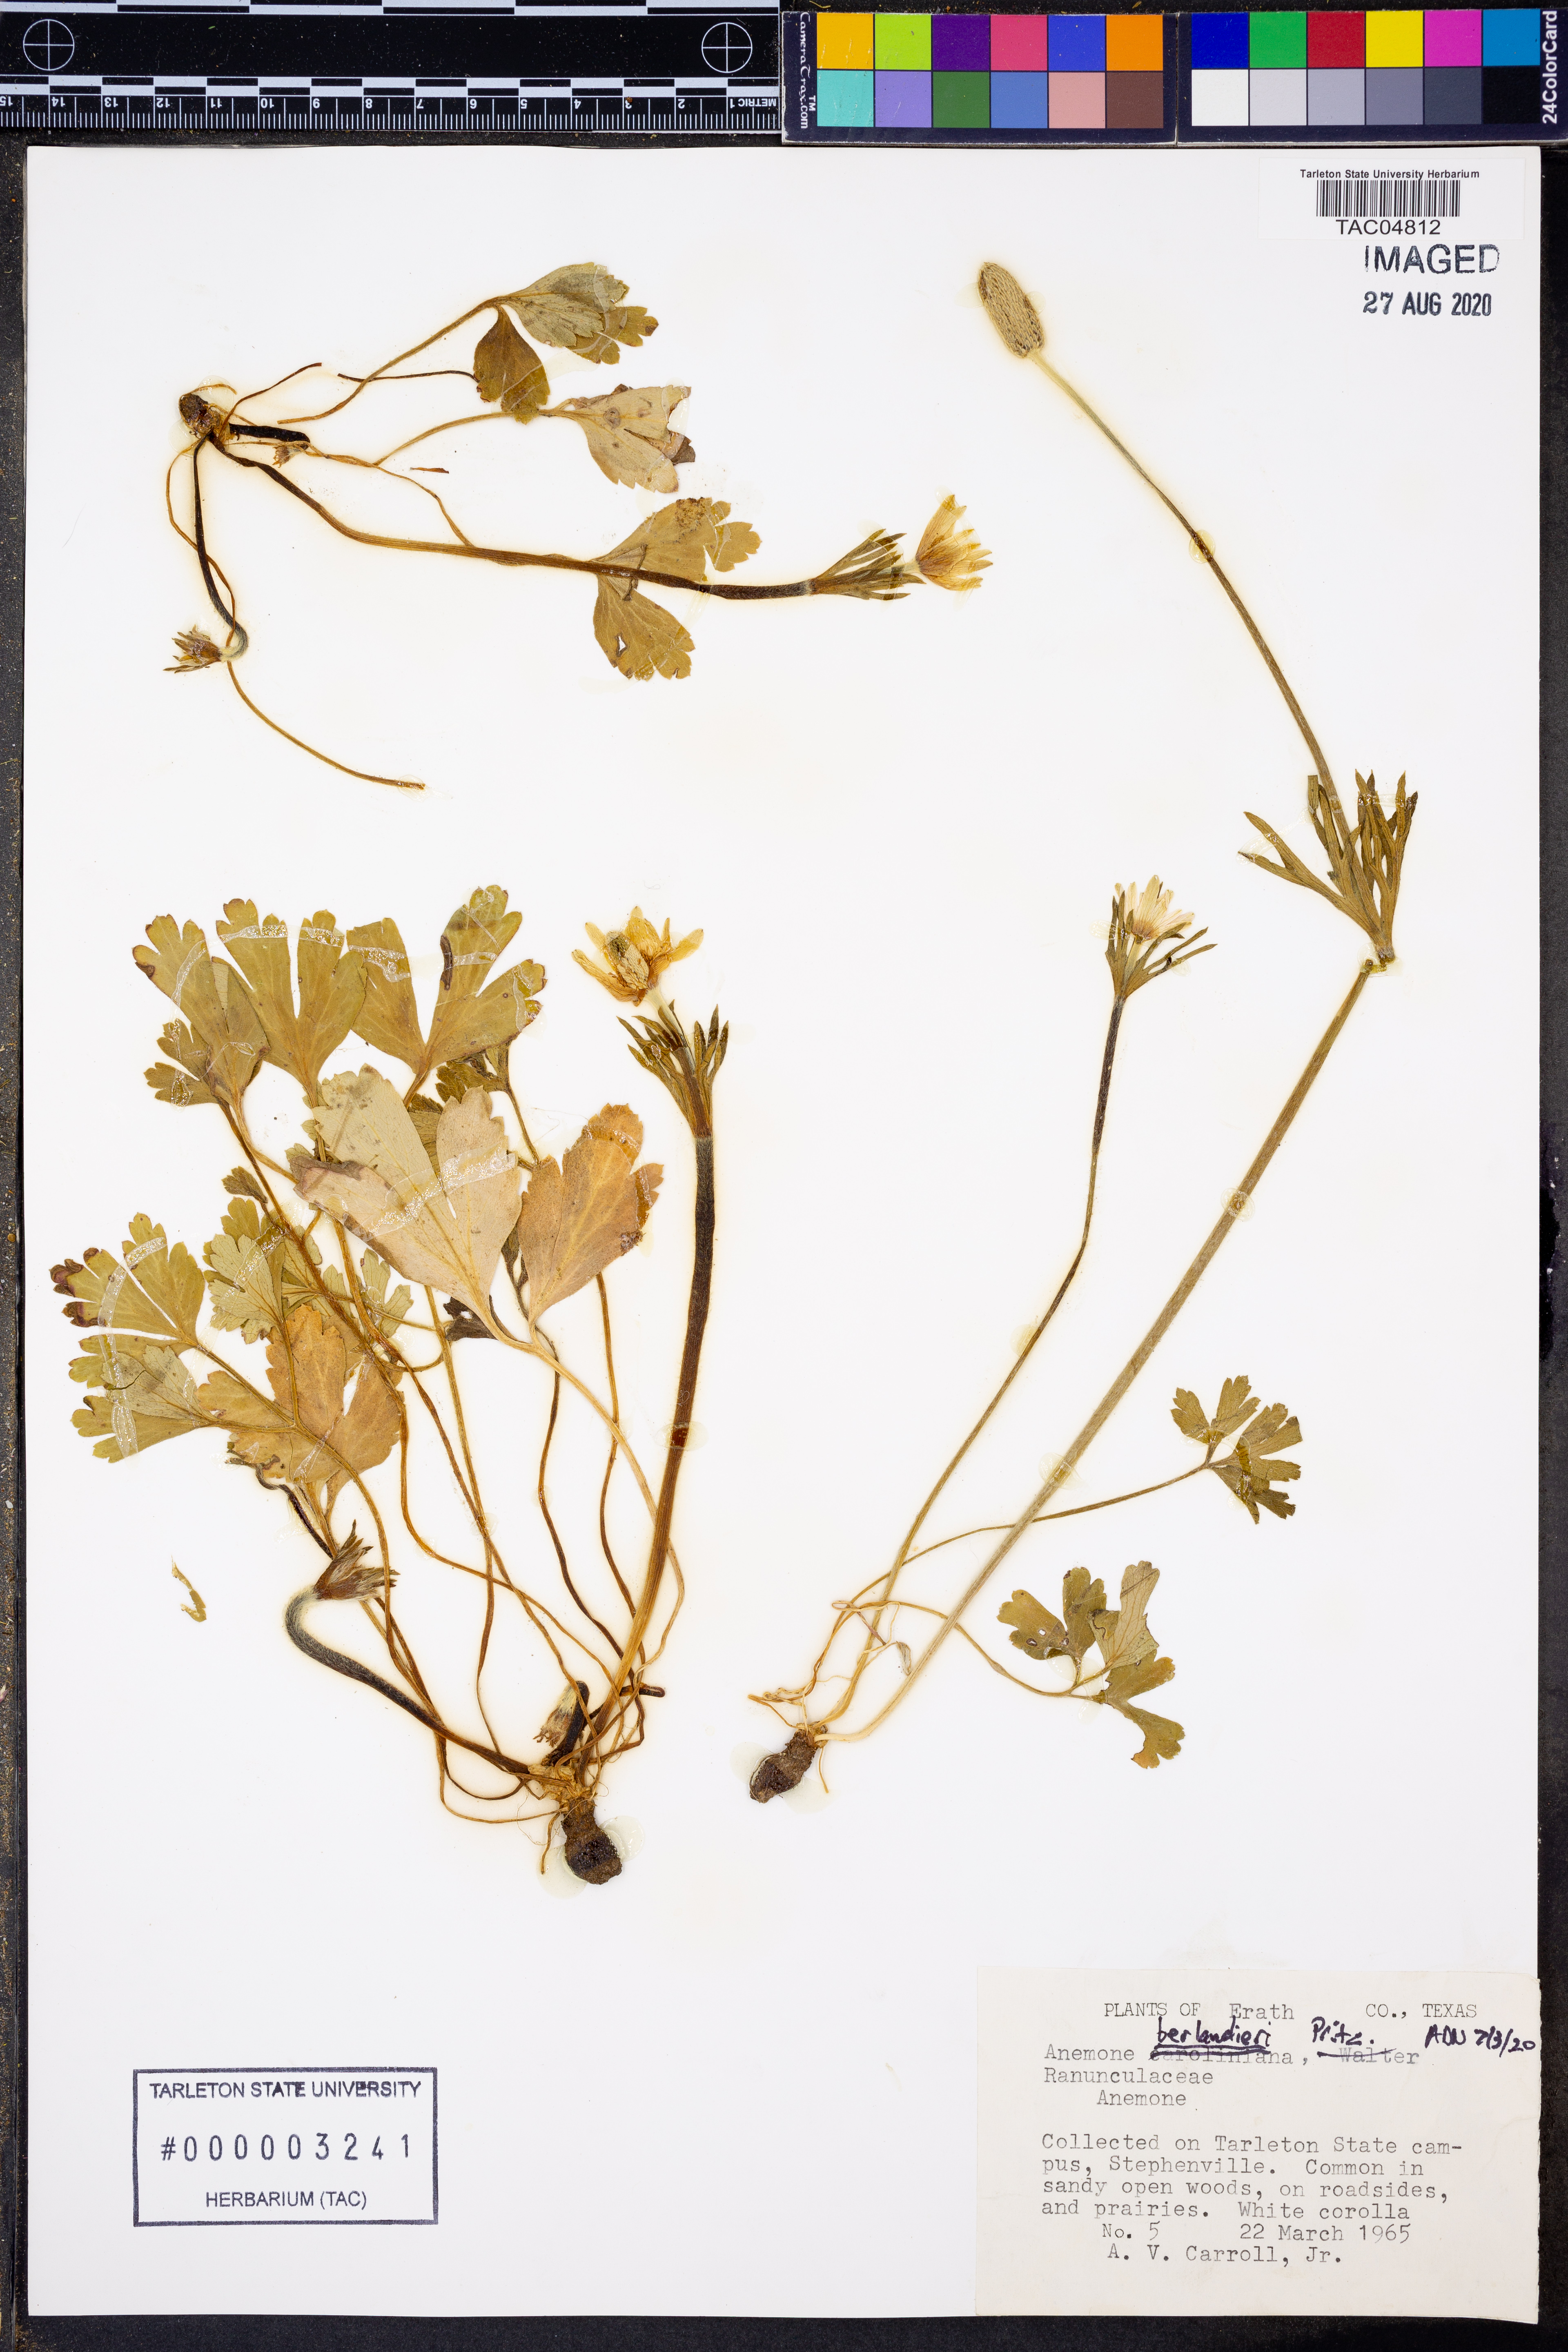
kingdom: Plantae
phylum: Tracheophyta
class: Magnoliopsida
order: Ranunculales
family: Ranunculaceae
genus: Anemone
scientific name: Anemone berlandieri
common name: Ten-petal anemone
